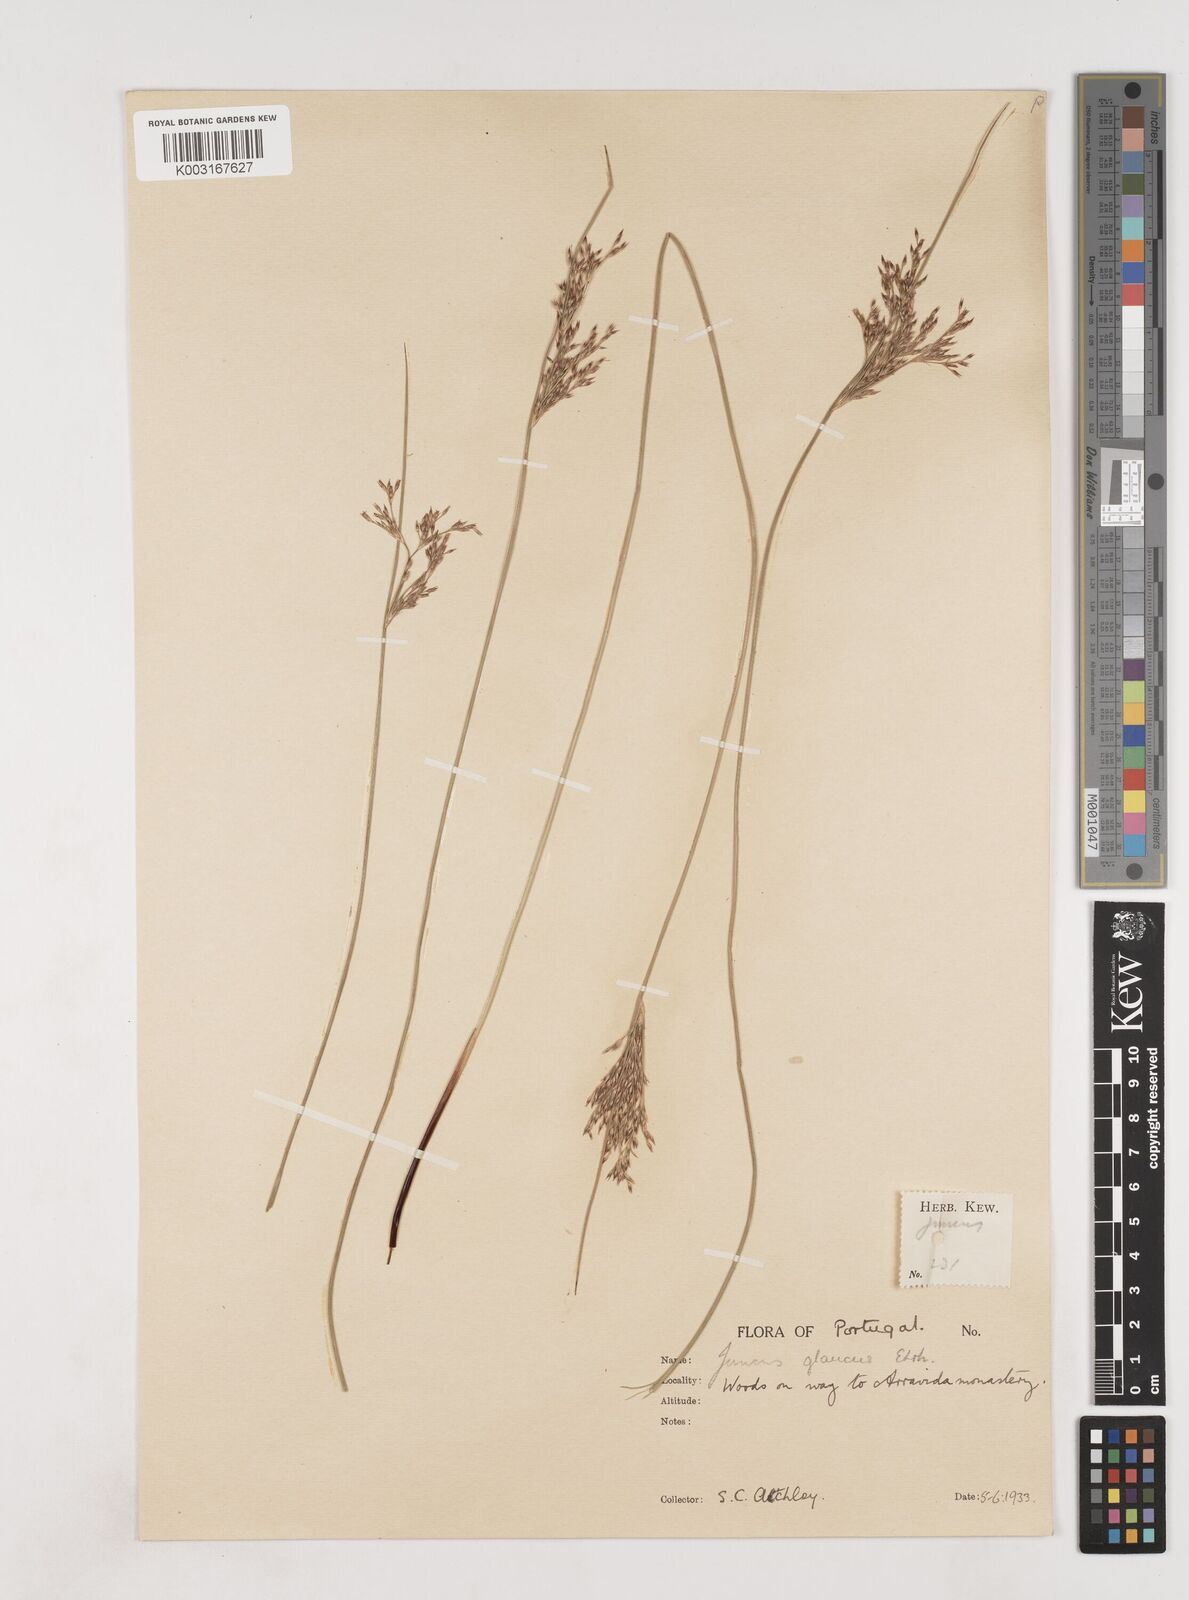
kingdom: Plantae
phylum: Tracheophyta
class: Liliopsida
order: Poales
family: Juncaceae
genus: Juncus
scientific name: Juncus inflexus
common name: Hard rush
